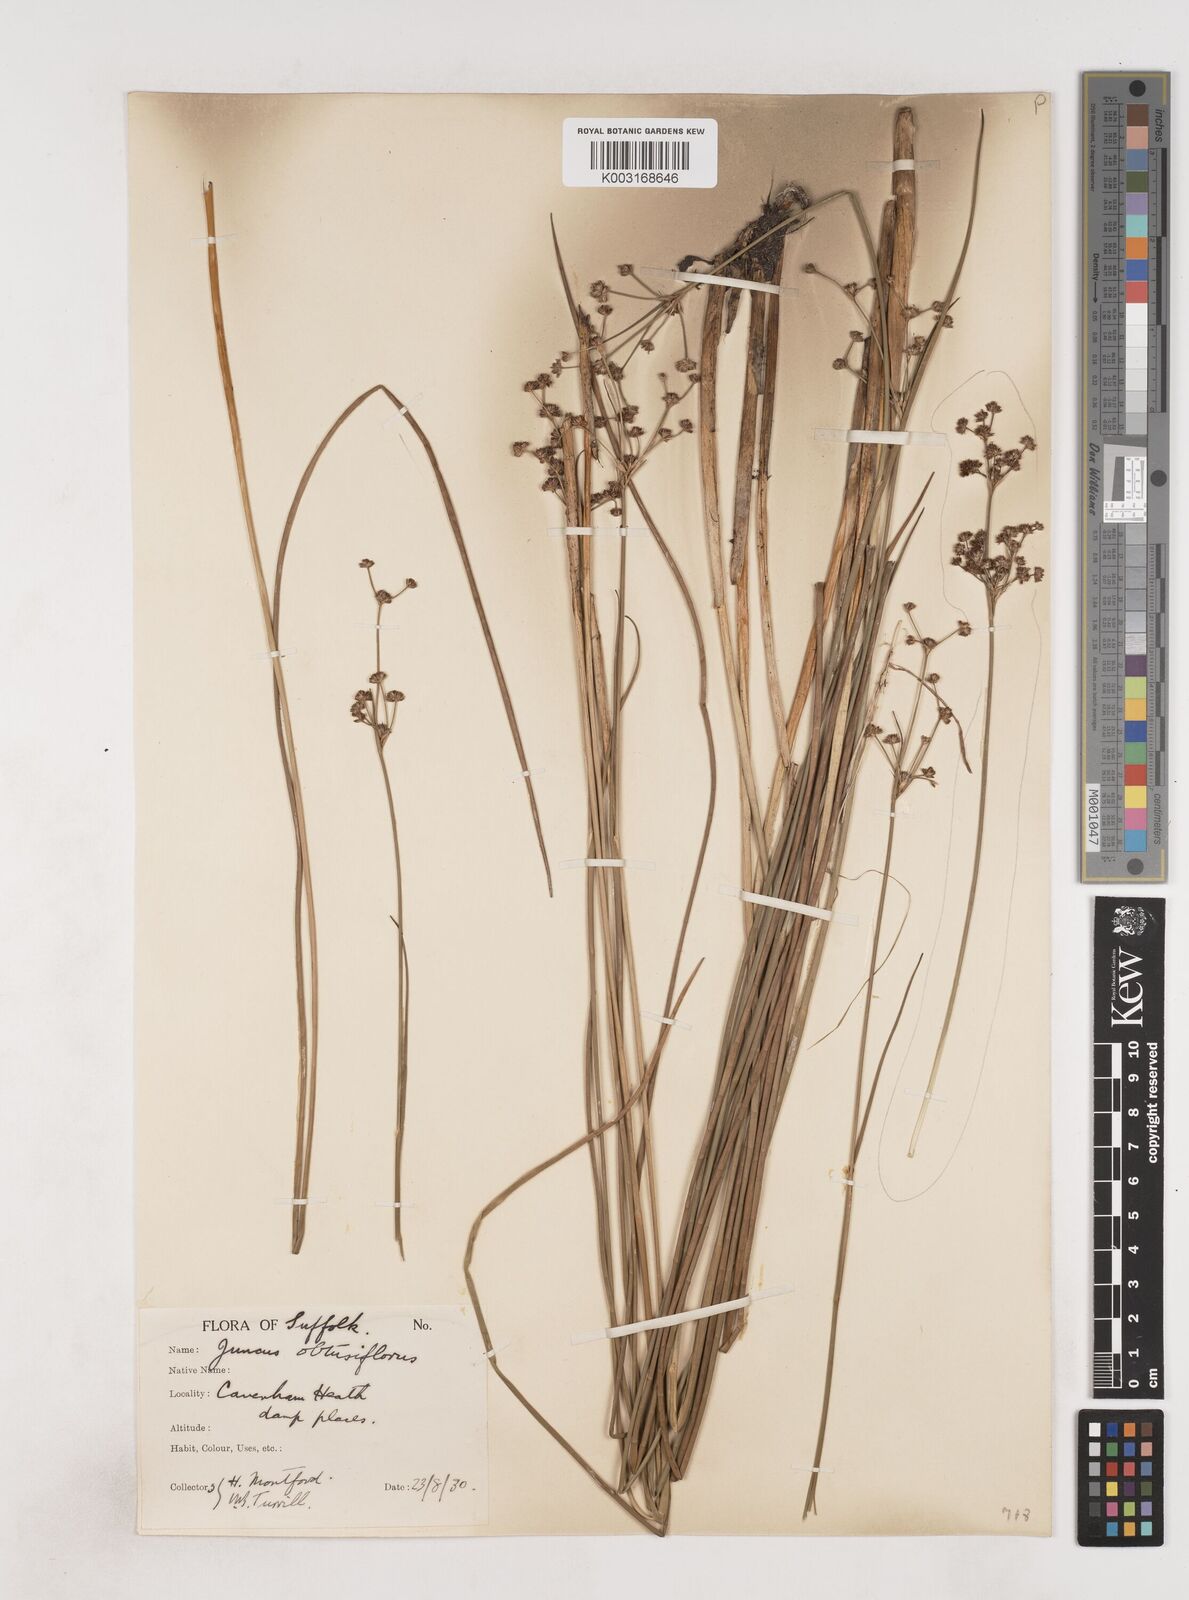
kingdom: Plantae
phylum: Tracheophyta
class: Liliopsida
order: Poales
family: Juncaceae
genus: Juncus
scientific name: Juncus subnodulosus
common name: Blunt-flowered rush
